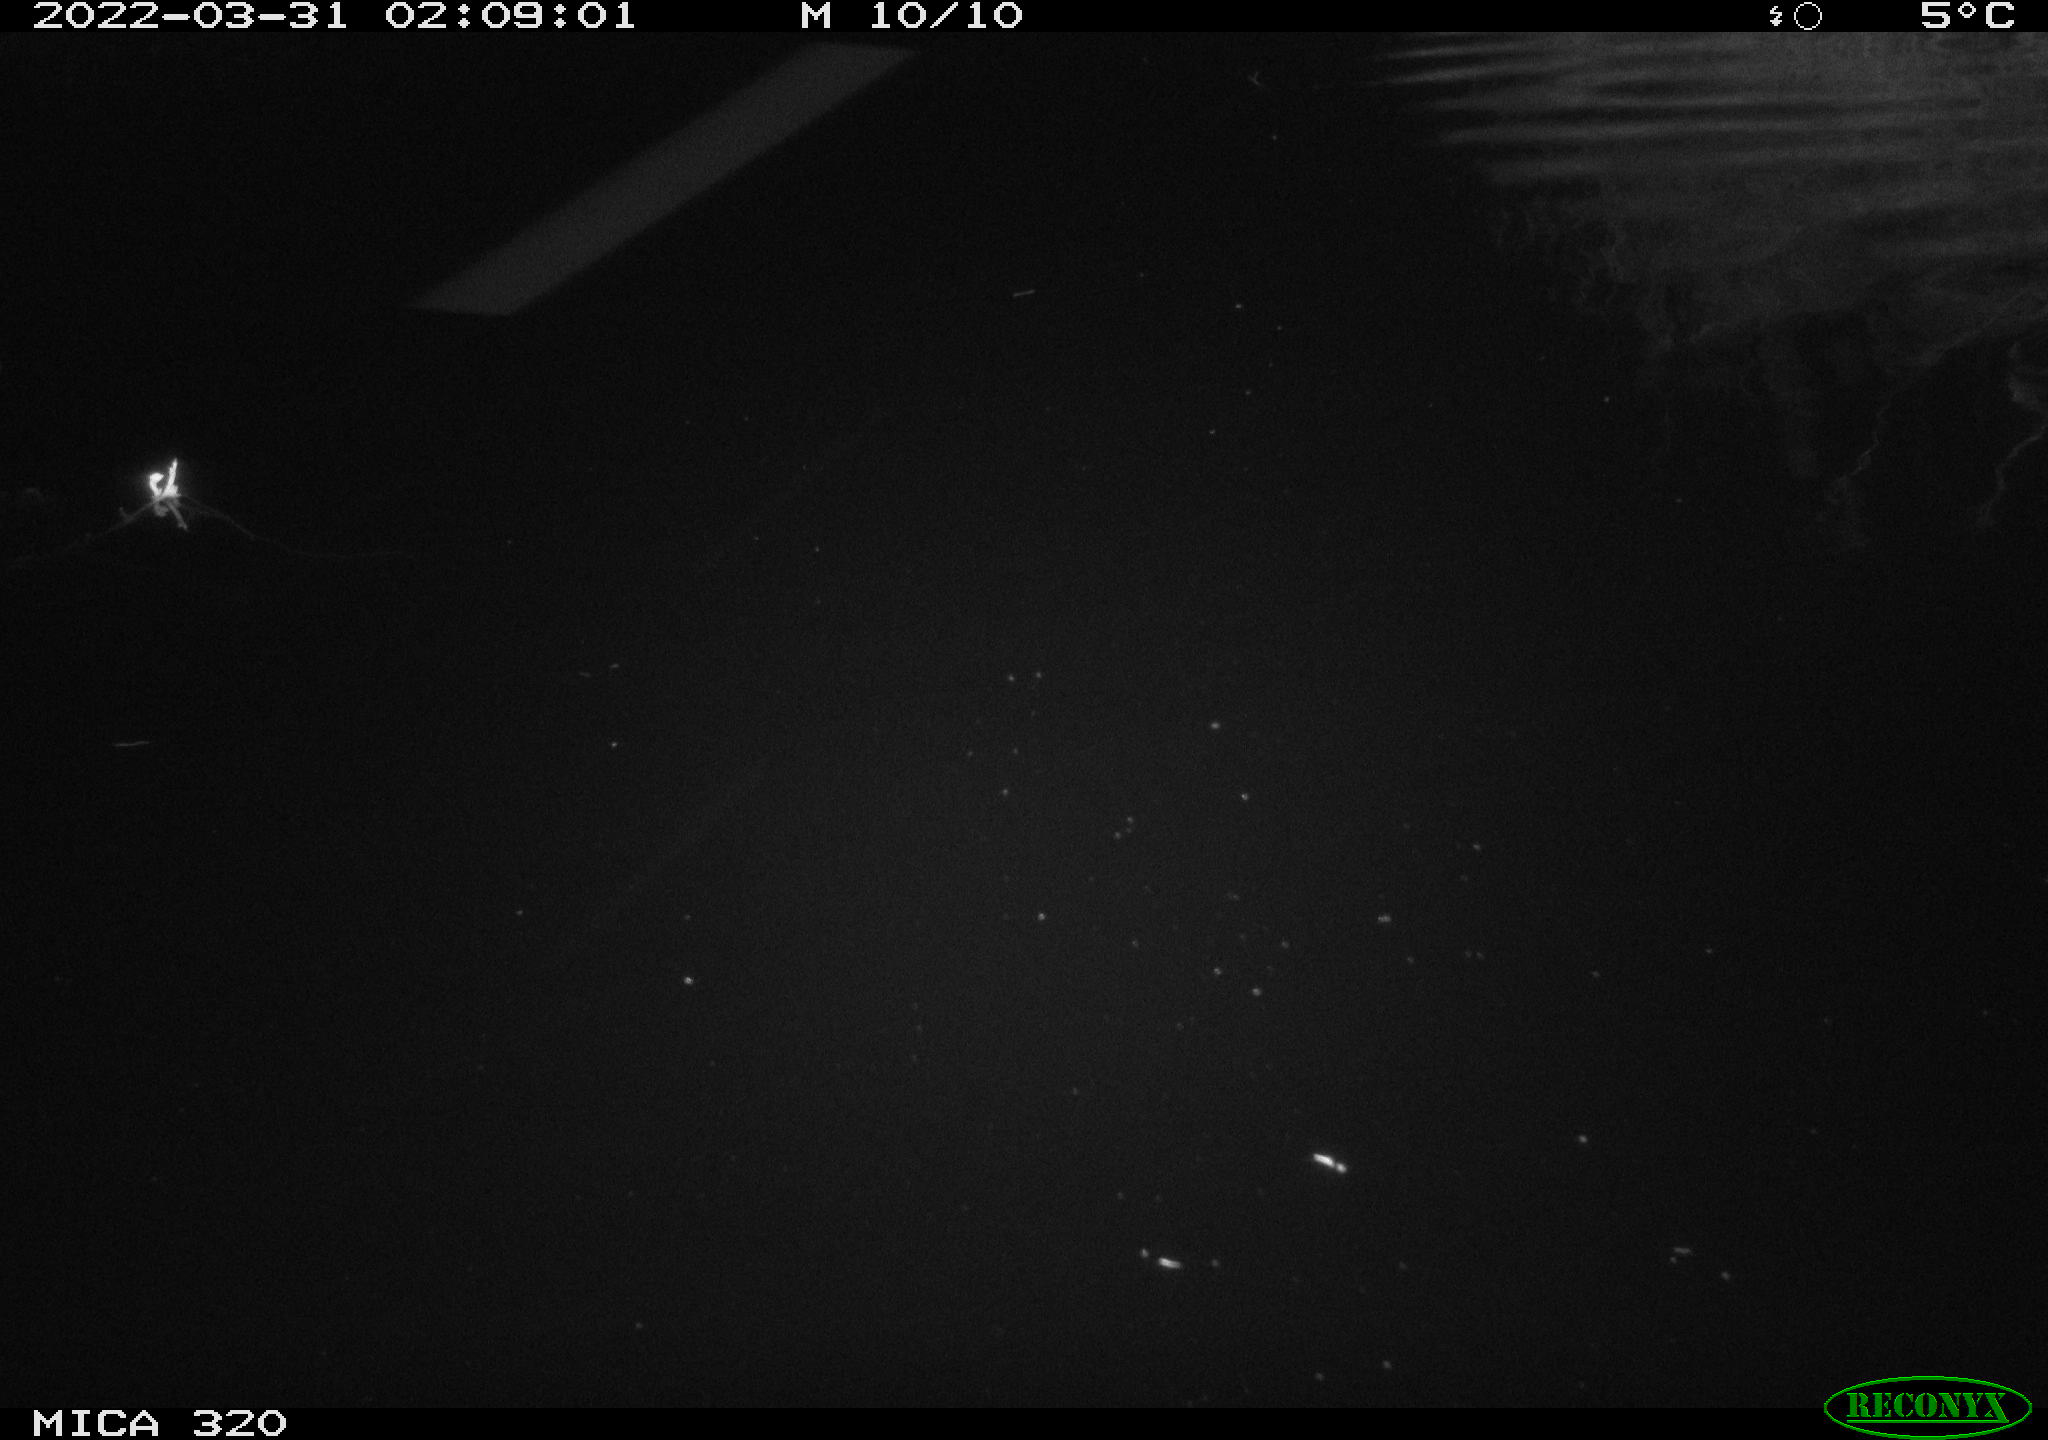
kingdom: Animalia
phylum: Chordata
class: Aves
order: Anseriformes
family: Anatidae
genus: Anas
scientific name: Anas platyrhynchos
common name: Mallard
